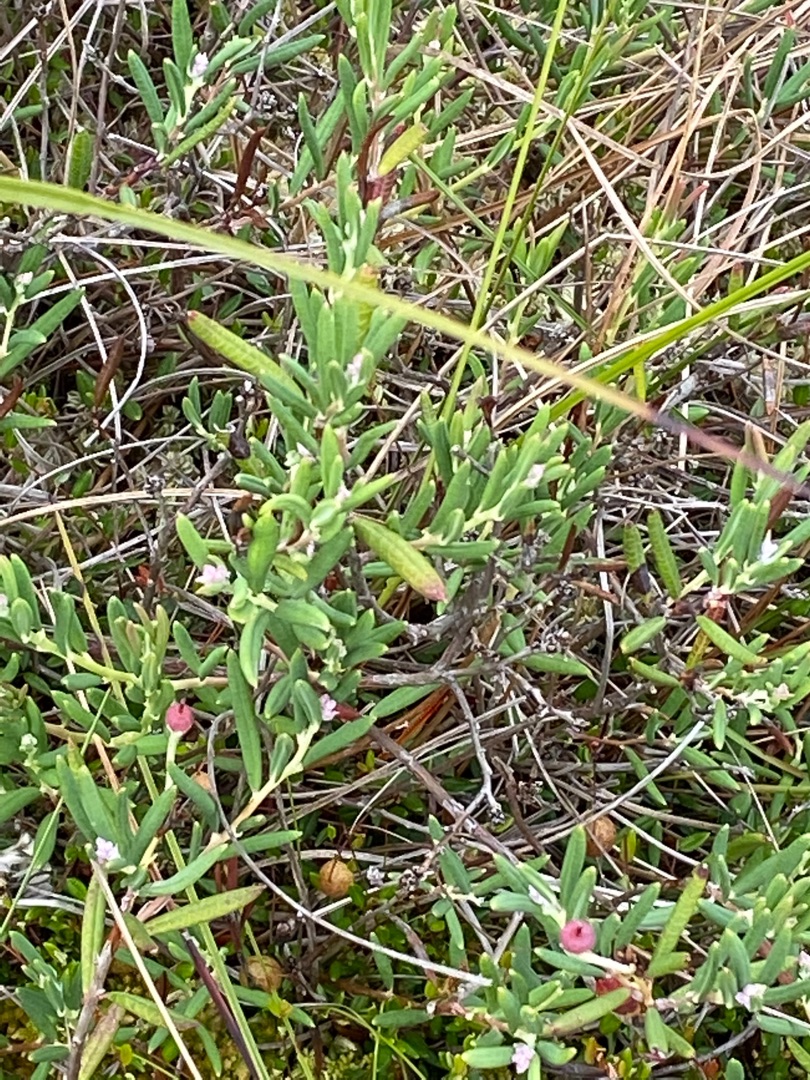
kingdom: Plantae
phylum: Tracheophyta
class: Magnoliopsida
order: Ericales
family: Ericaceae
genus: Andromeda
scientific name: Andromeda polifolia
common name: Rosmarinlyng
